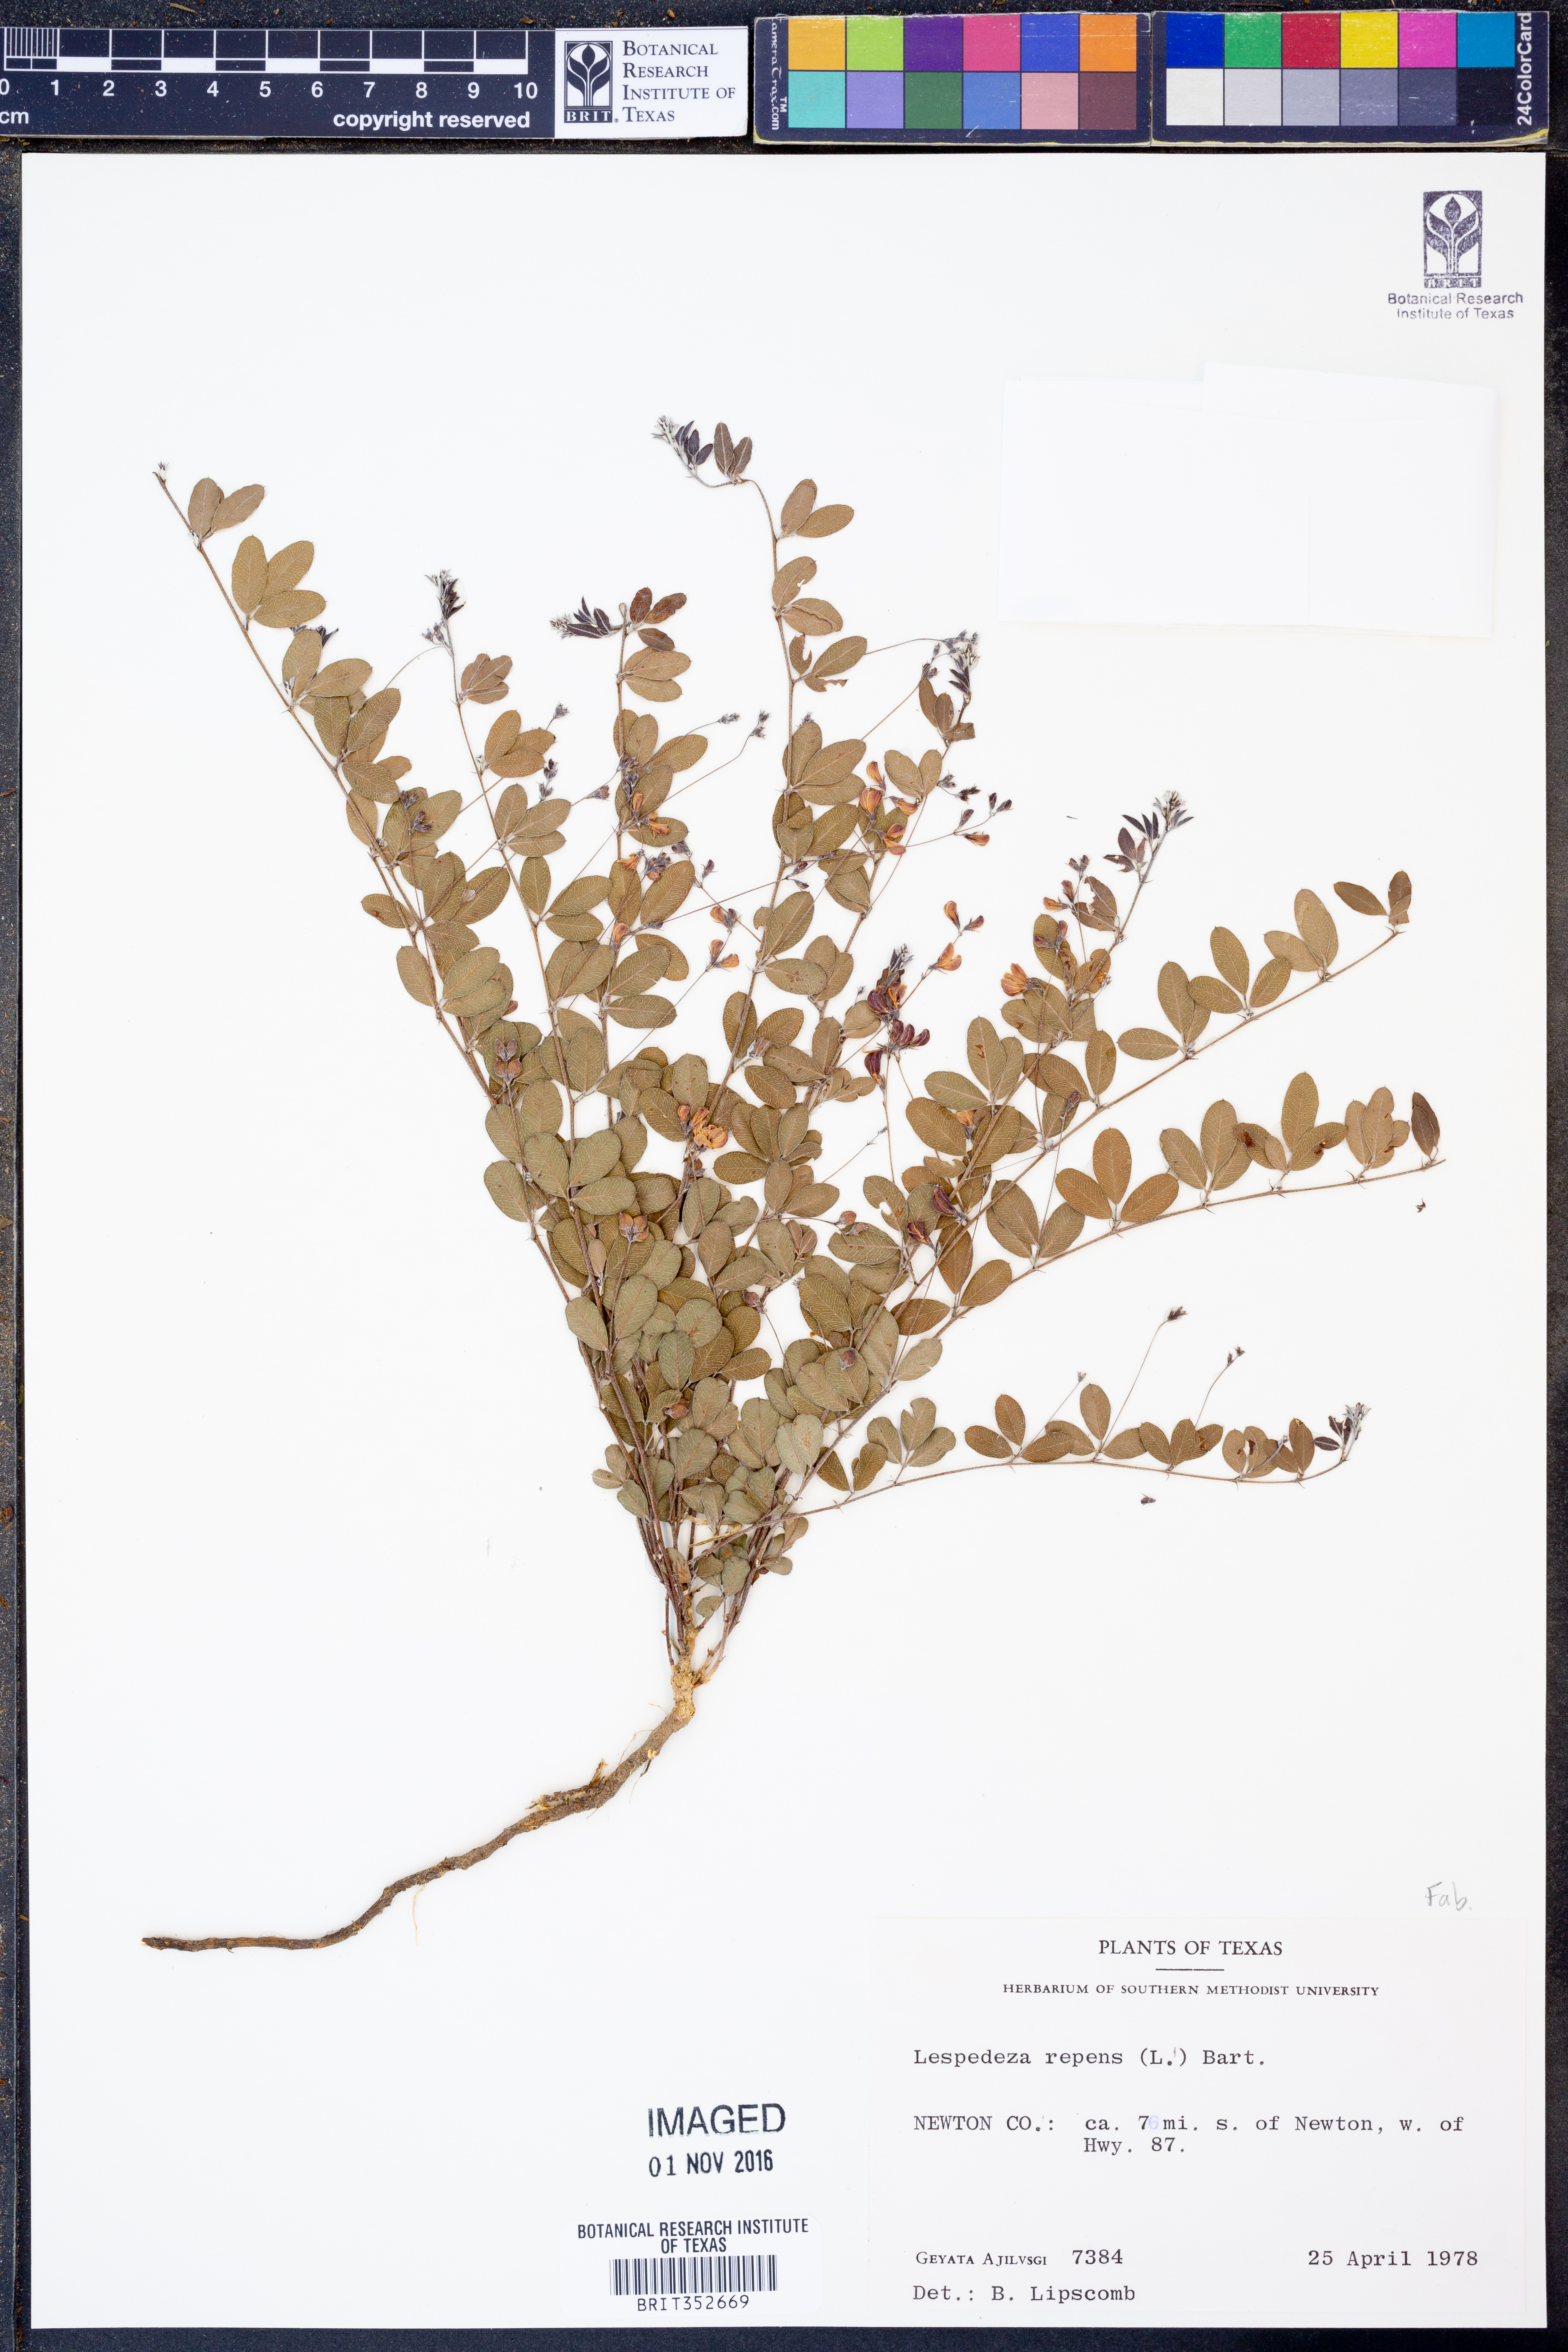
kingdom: Plantae
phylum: Tracheophyta
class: Magnoliopsida
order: Fabales
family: Fabaceae
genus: Lespedeza
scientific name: Lespedeza repens
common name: Creeping bush-clover
